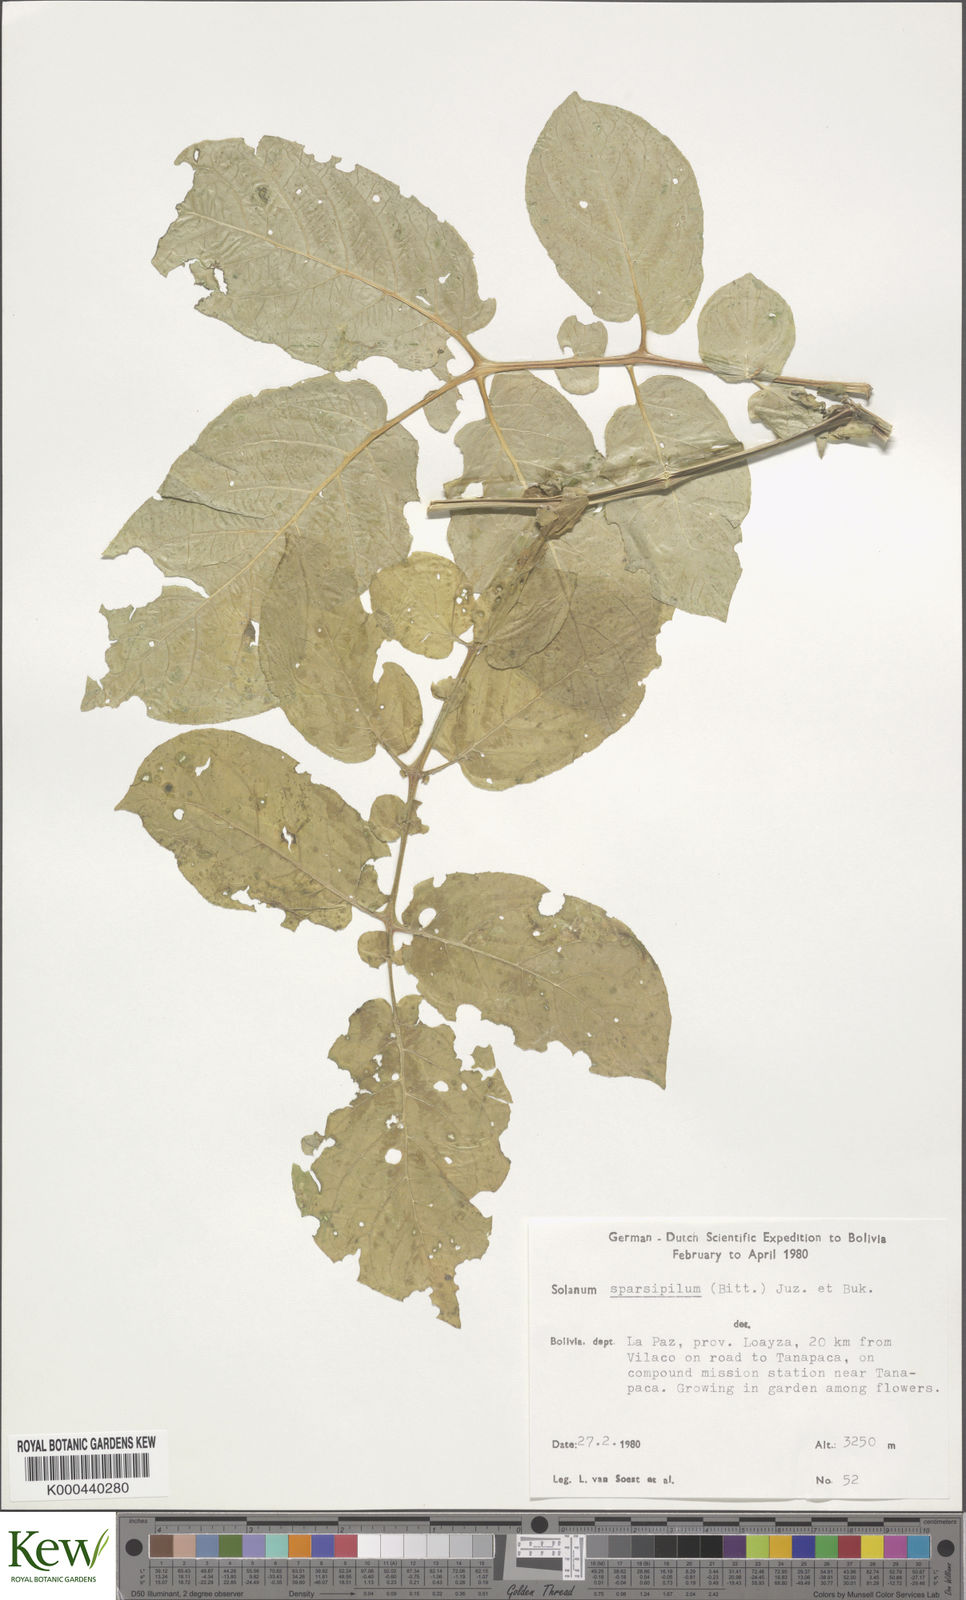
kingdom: Plantae
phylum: Tracheophyta
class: Magnoliopsida
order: Solanales
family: Solanaceae
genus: Solanum
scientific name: Solanum brevicaule
